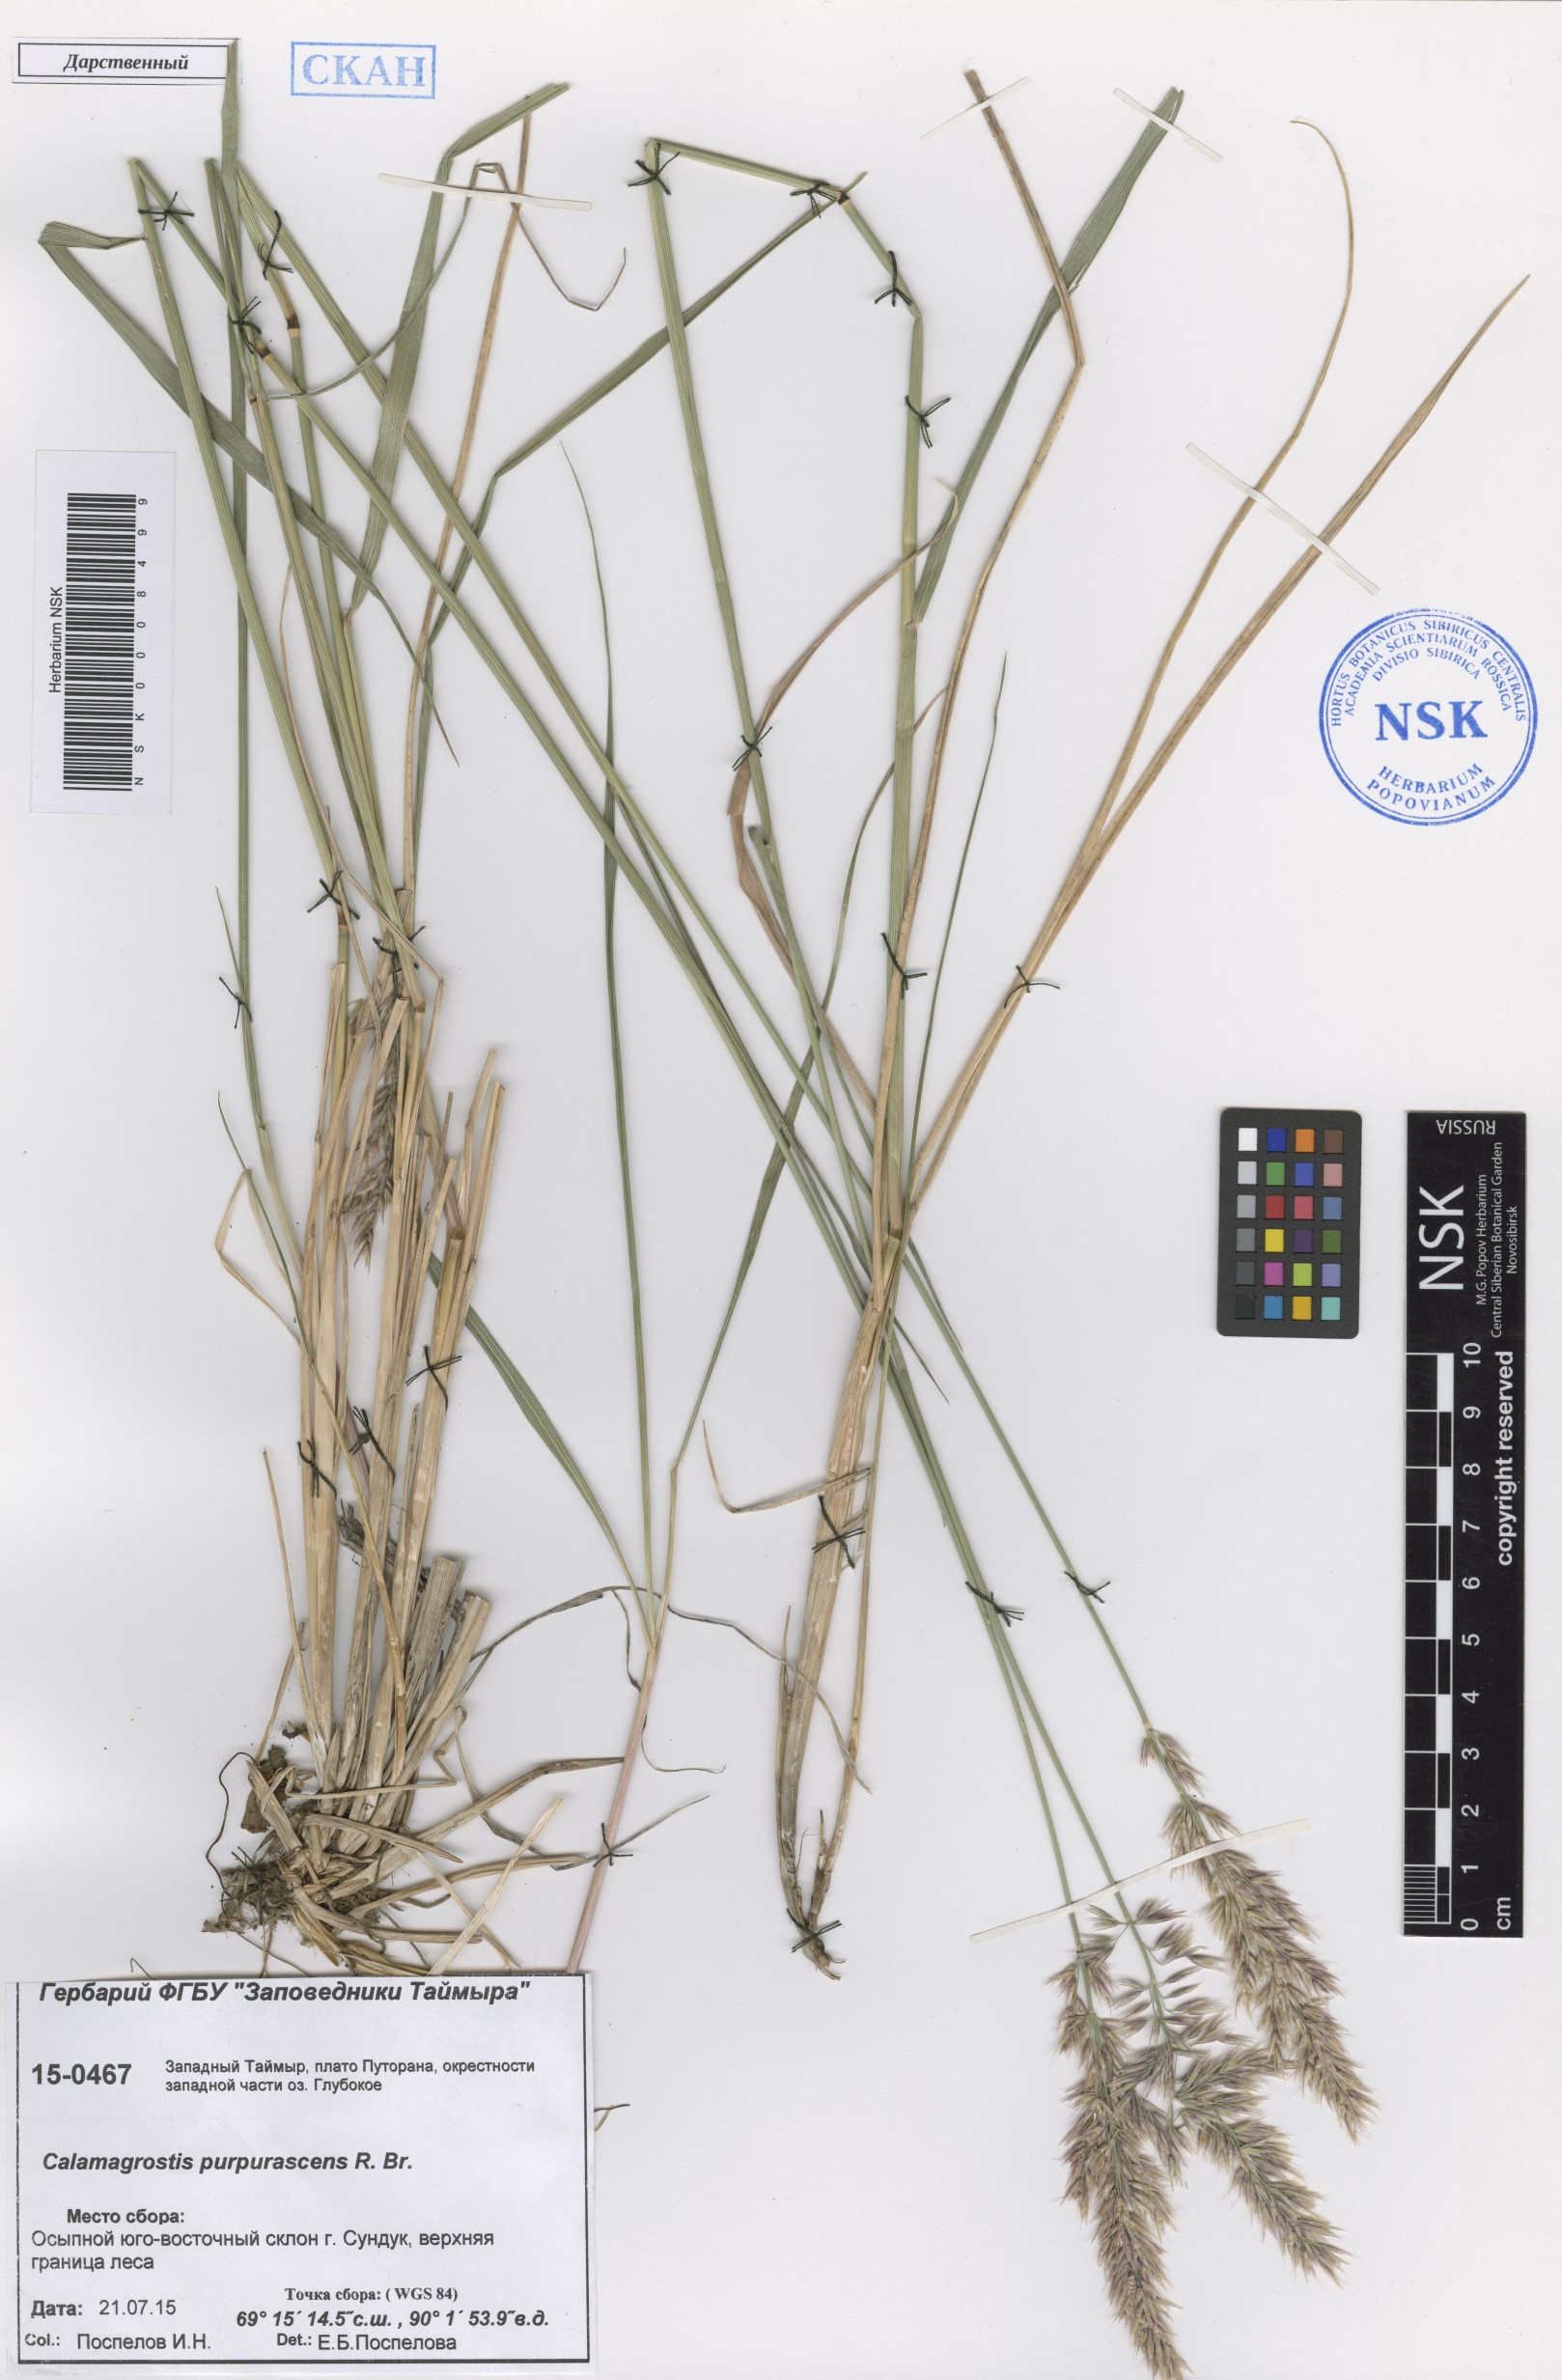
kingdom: Plantae
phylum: Tracheophyta
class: Liliopsida
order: Poales
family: Poaceae
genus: Calamagrostis
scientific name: Calamagrostis purpurascens
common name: Purple reedgrass
